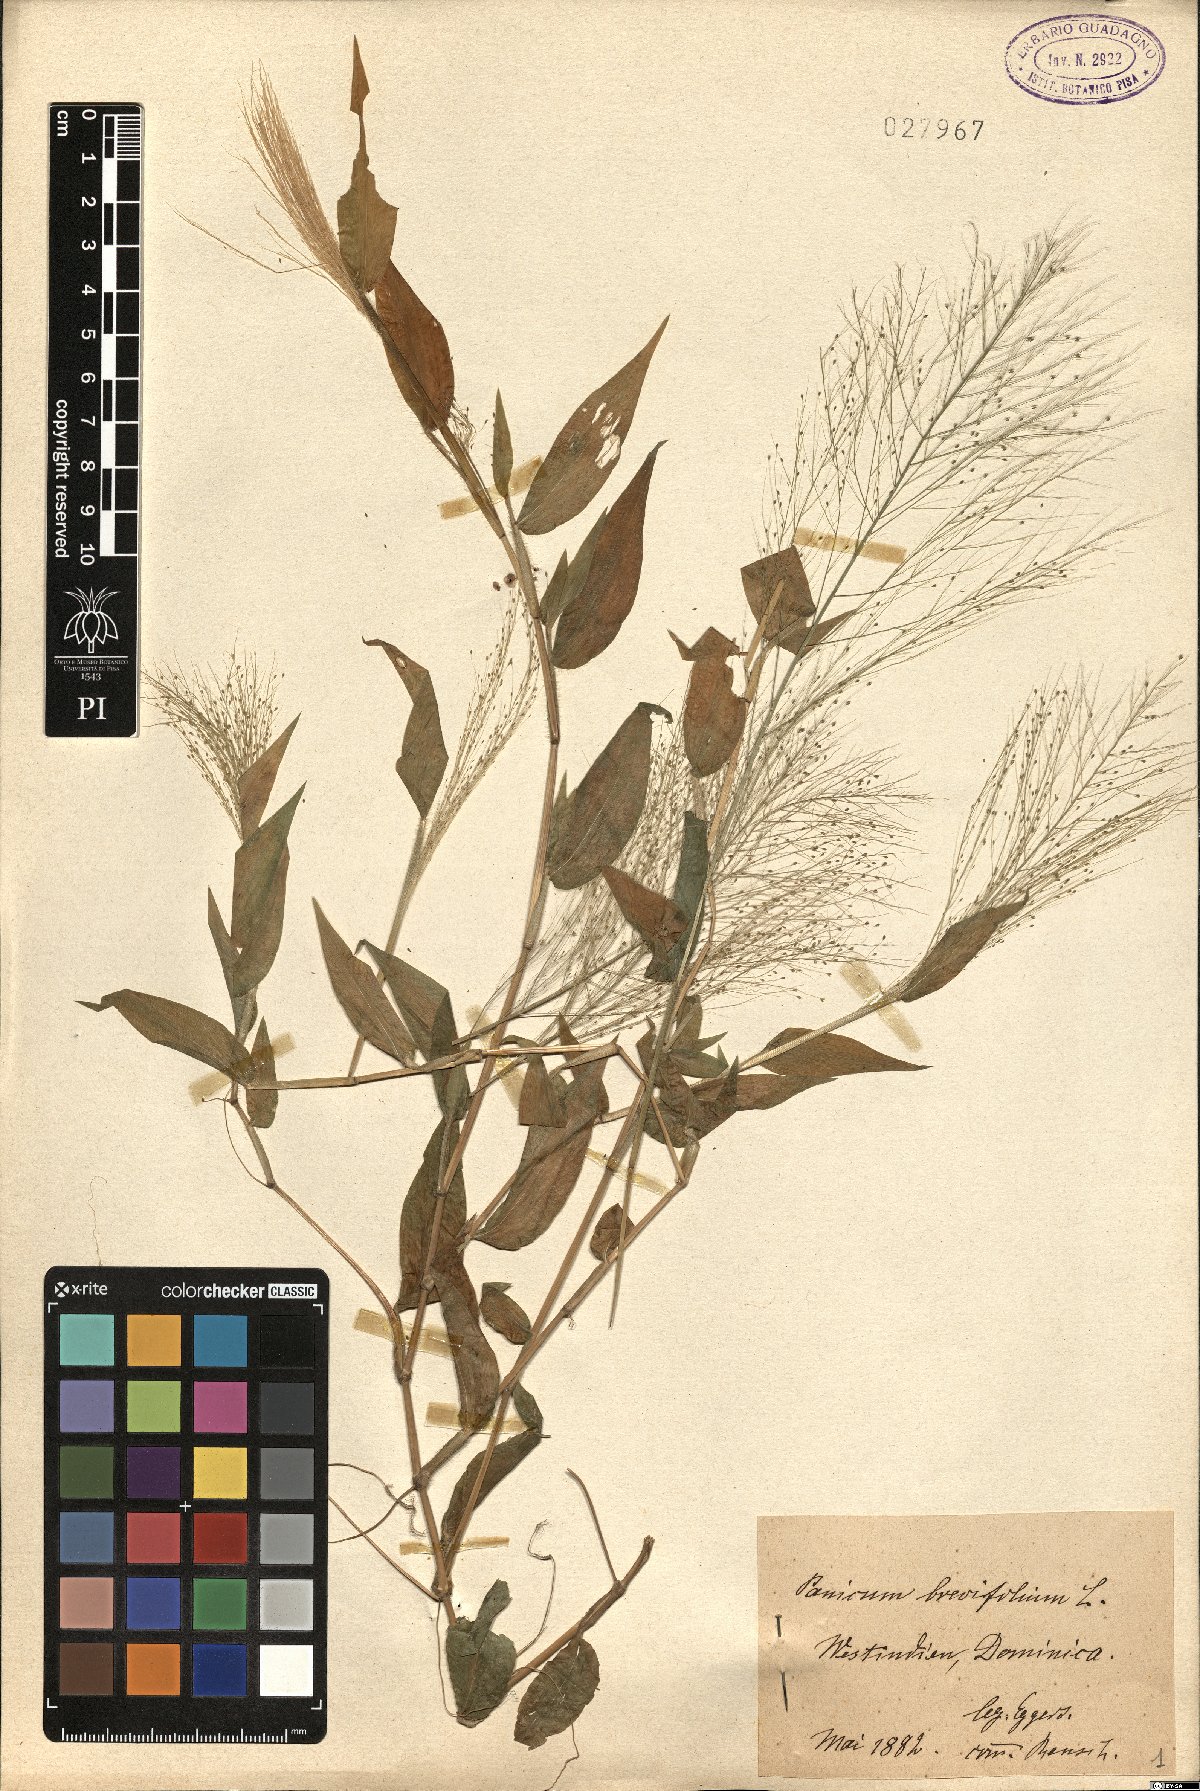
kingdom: Plantae
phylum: Tracheophyta
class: Liliopsida
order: Poales
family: Poaceae
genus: Panicum
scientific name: Panicum brevifolium
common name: Shortleaf panic grass
